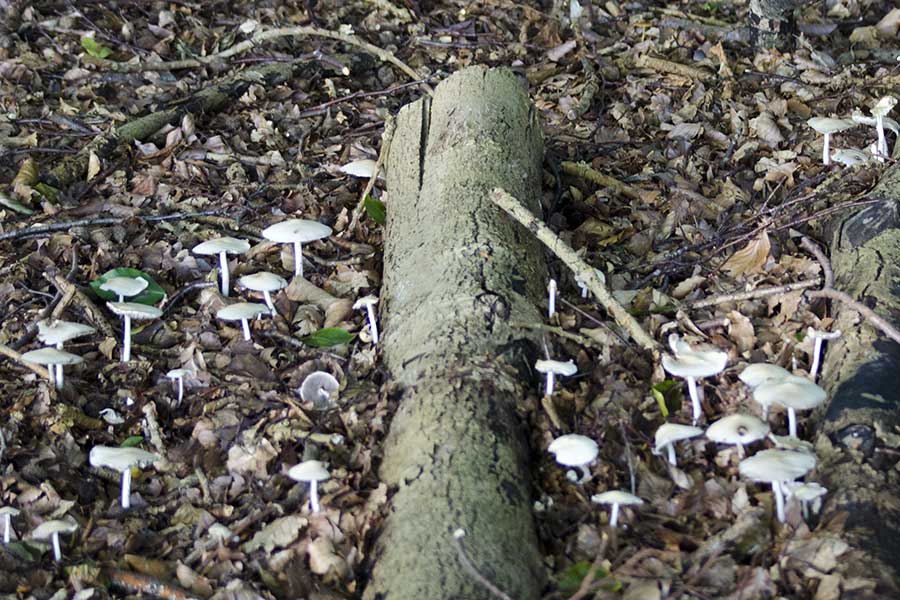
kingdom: Fungi
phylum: Basidiomycota
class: Agaricomycetes
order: Agaricales
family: Psathyrellaceae
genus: Candolleomyces
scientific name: Candolleomyces candolleanus
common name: Candolles mørkhat
